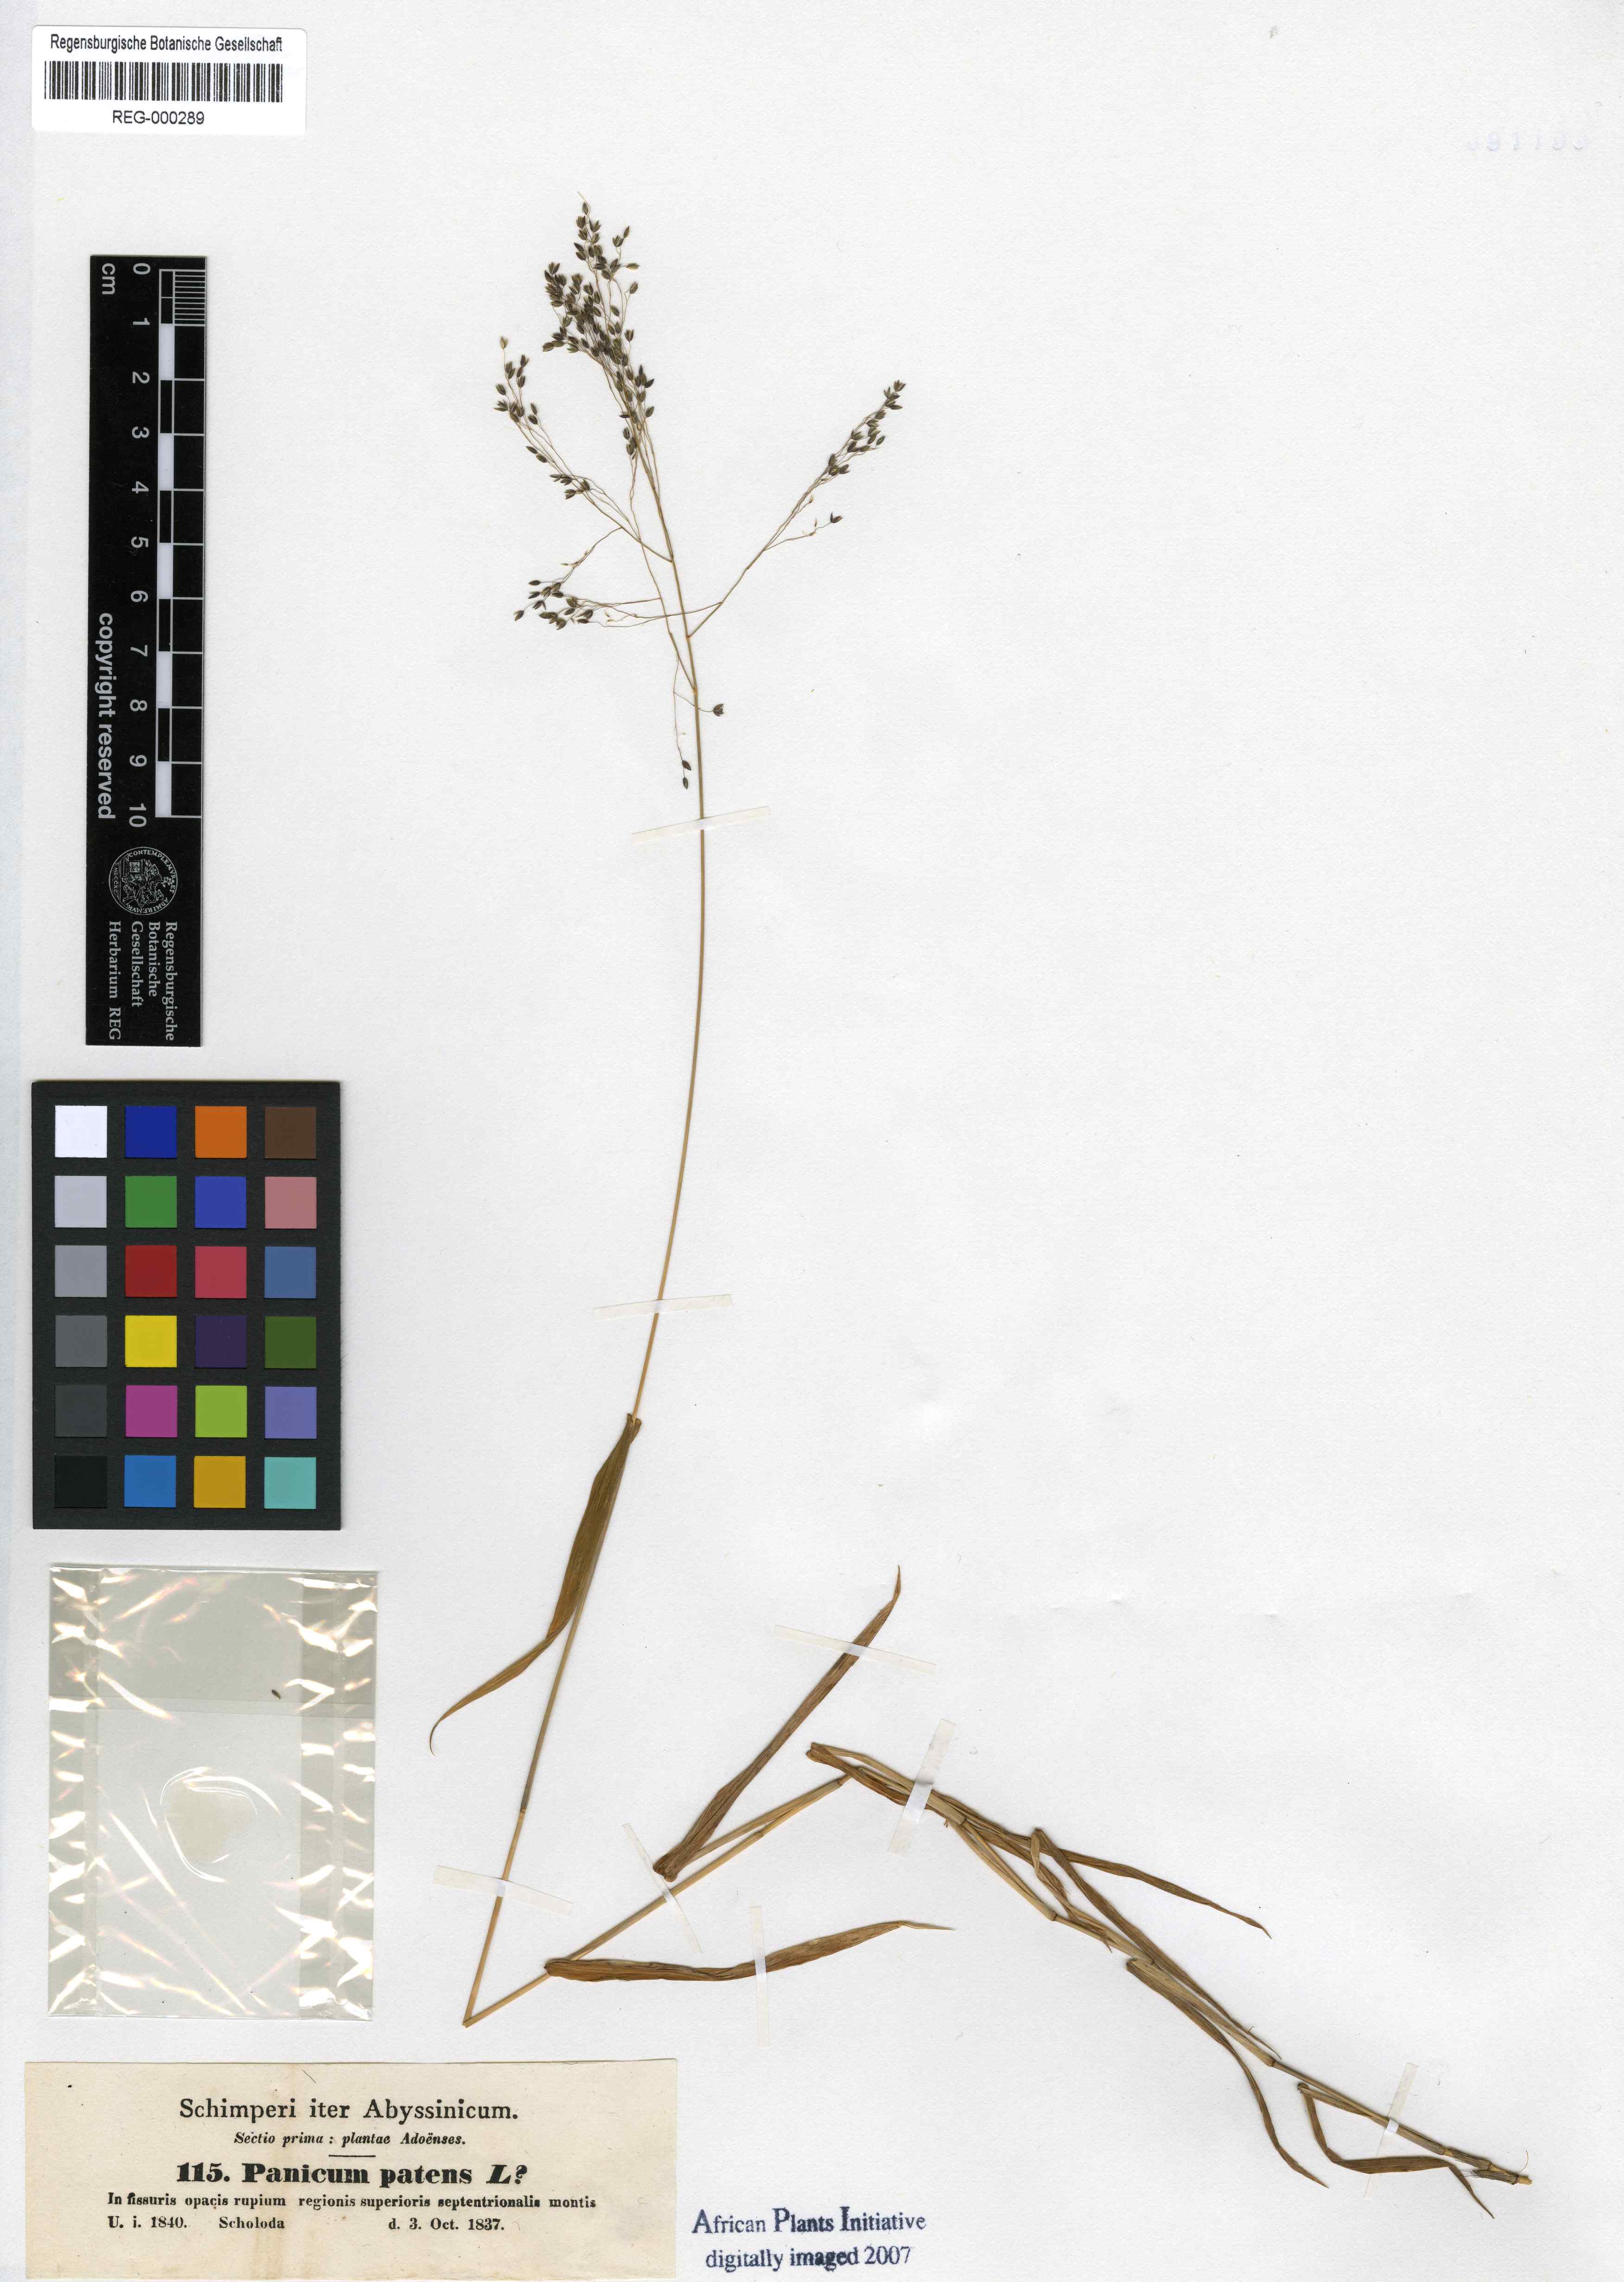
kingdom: Plantae
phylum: Tracheophyta
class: Liliopsida
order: Poales
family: Poaceae
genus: Cyrtococcum
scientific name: Cyrtococcum patens
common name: Broad-leaved bowgrass
